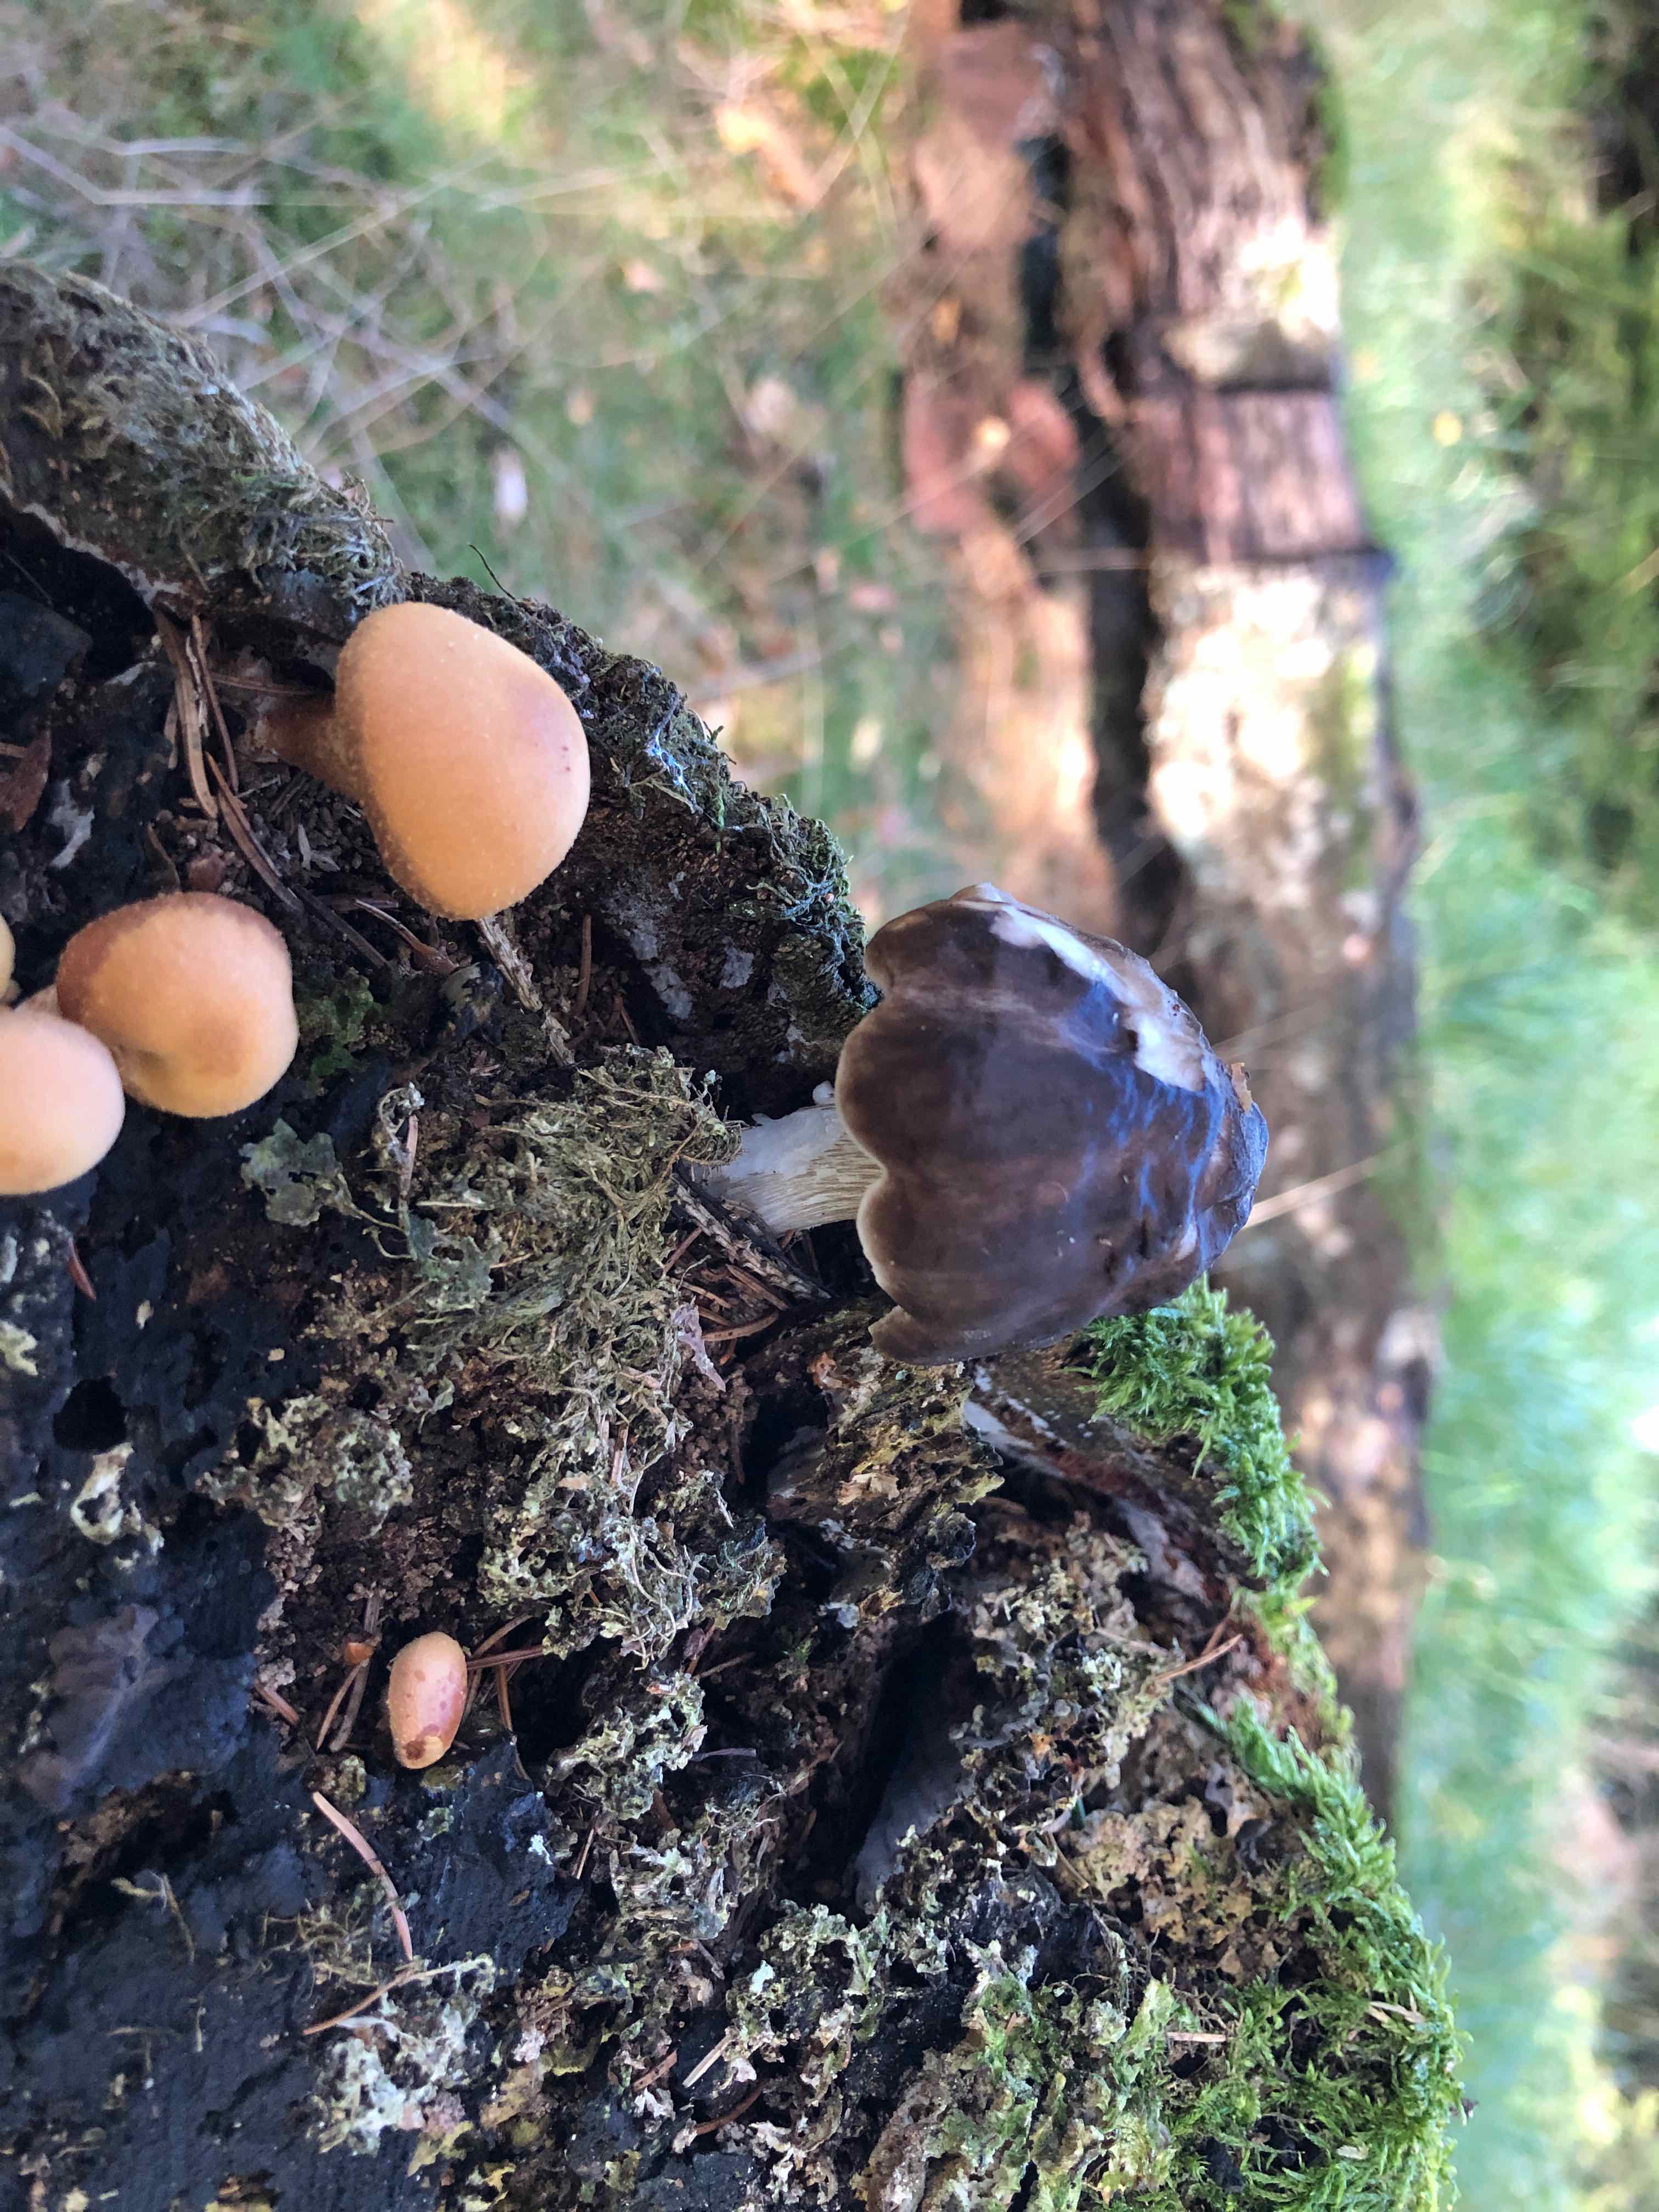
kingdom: Fungi
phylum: Basidiomycota
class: Agaricomycetes
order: Agaricales
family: Pluteaceae
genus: Pluteus
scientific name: Pluteus cervinus
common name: sodfarvet skærmhat
